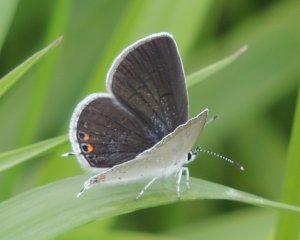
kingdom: Animalia
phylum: Arthropoda
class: Insecta
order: Lepidoptera
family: Lycaenidae
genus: Elkalyce
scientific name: Elkalyce comyntas
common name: Eastern Tailed-Blue
